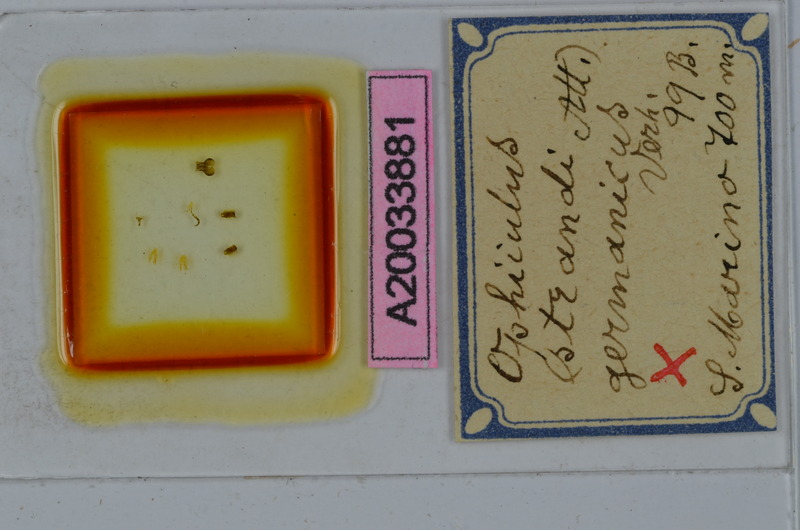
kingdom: Animalia
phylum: Arthropoda
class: Diplopoda
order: Julida
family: Julidae
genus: Ophyiulus
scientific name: Ophyiulus germanicus
